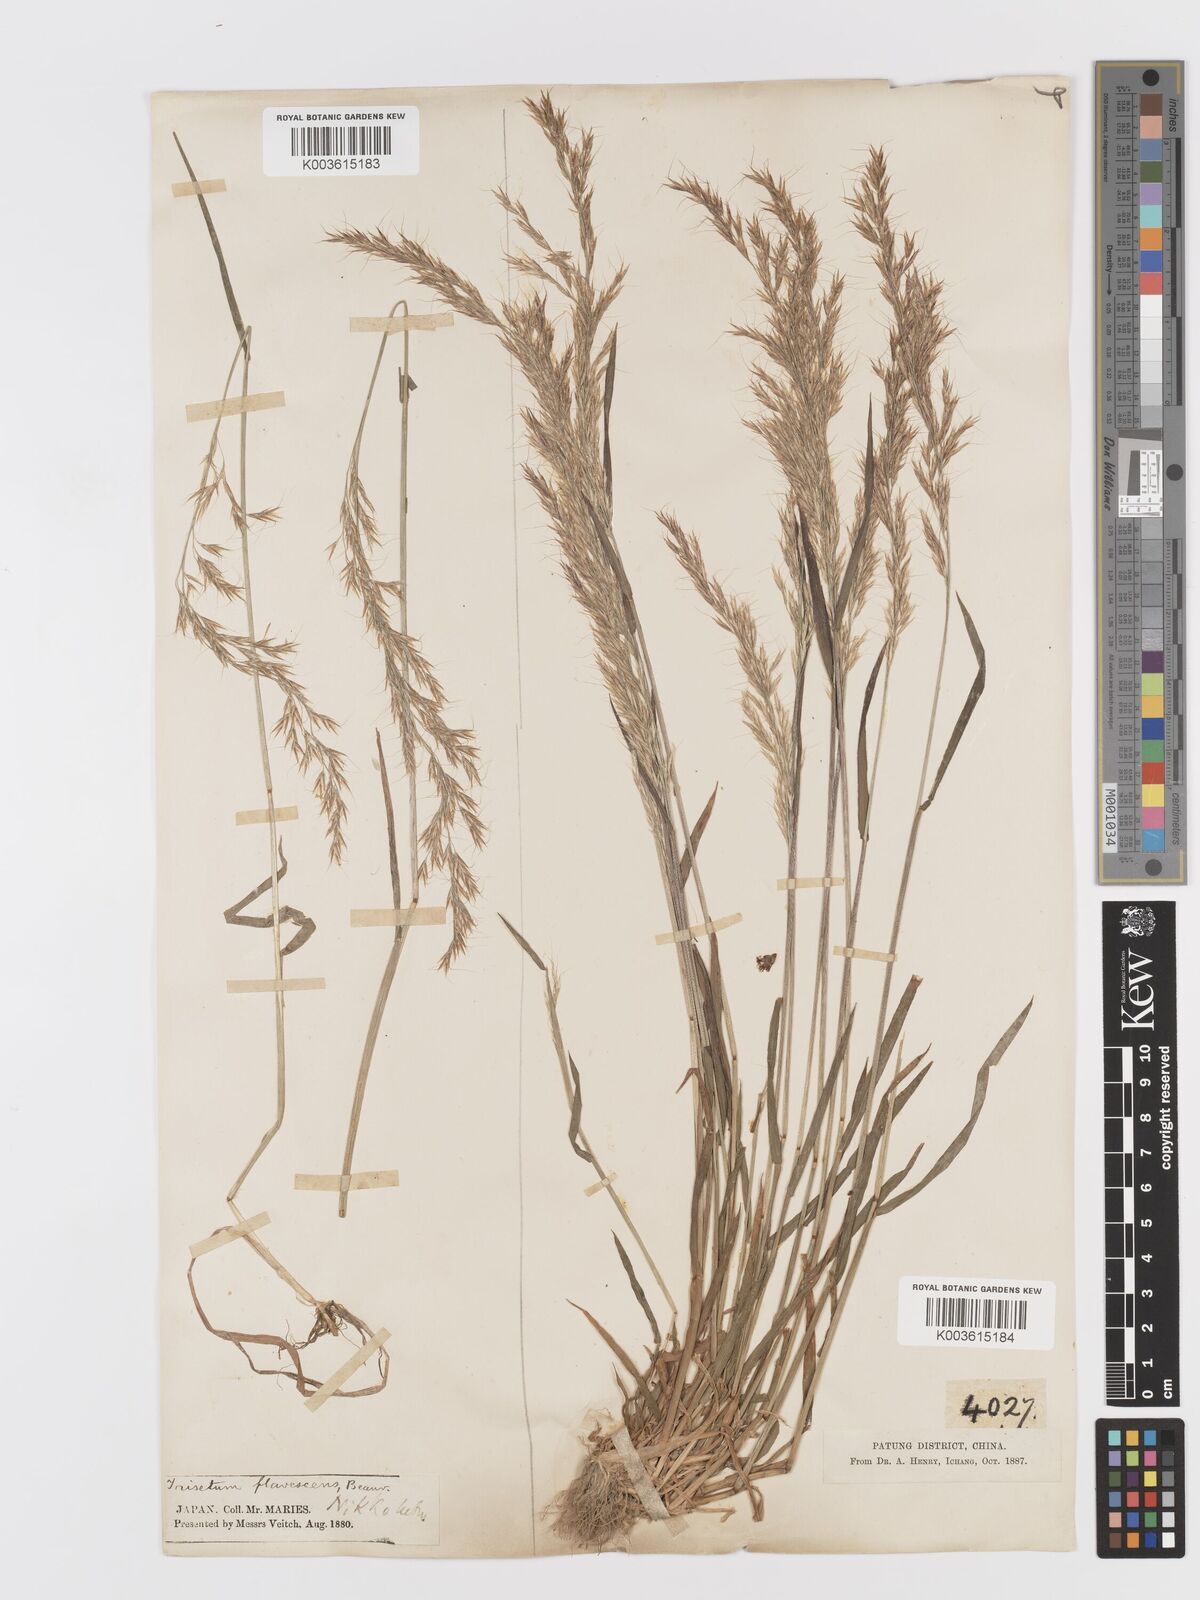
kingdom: Plantae
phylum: Tracheophyta
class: Liliopsida
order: Poales
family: Poaceae
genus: Sibirotrisetum
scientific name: Sibirotrisetum bifidum
